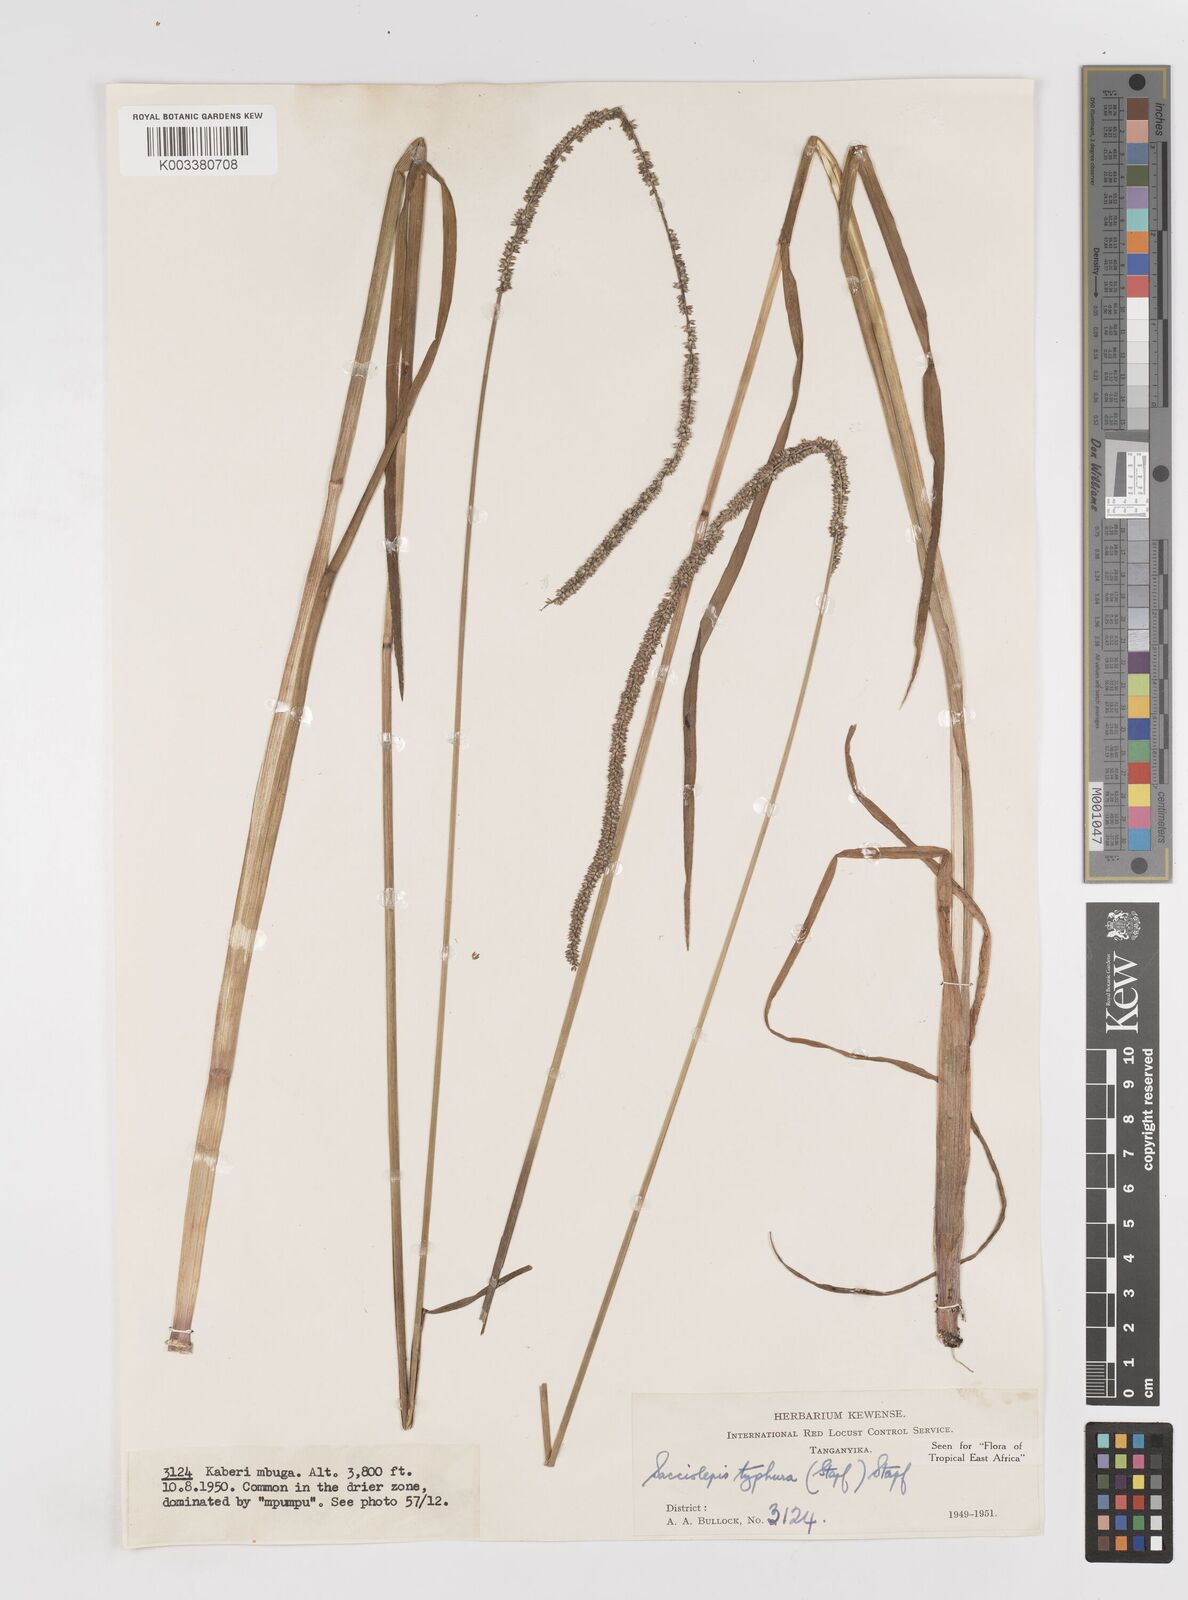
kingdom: Plantae
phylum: Tracheophyta
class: Liliopsida
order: Poales
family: Poaceae
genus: Sacciolepis
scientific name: Sacciolepis typhura
